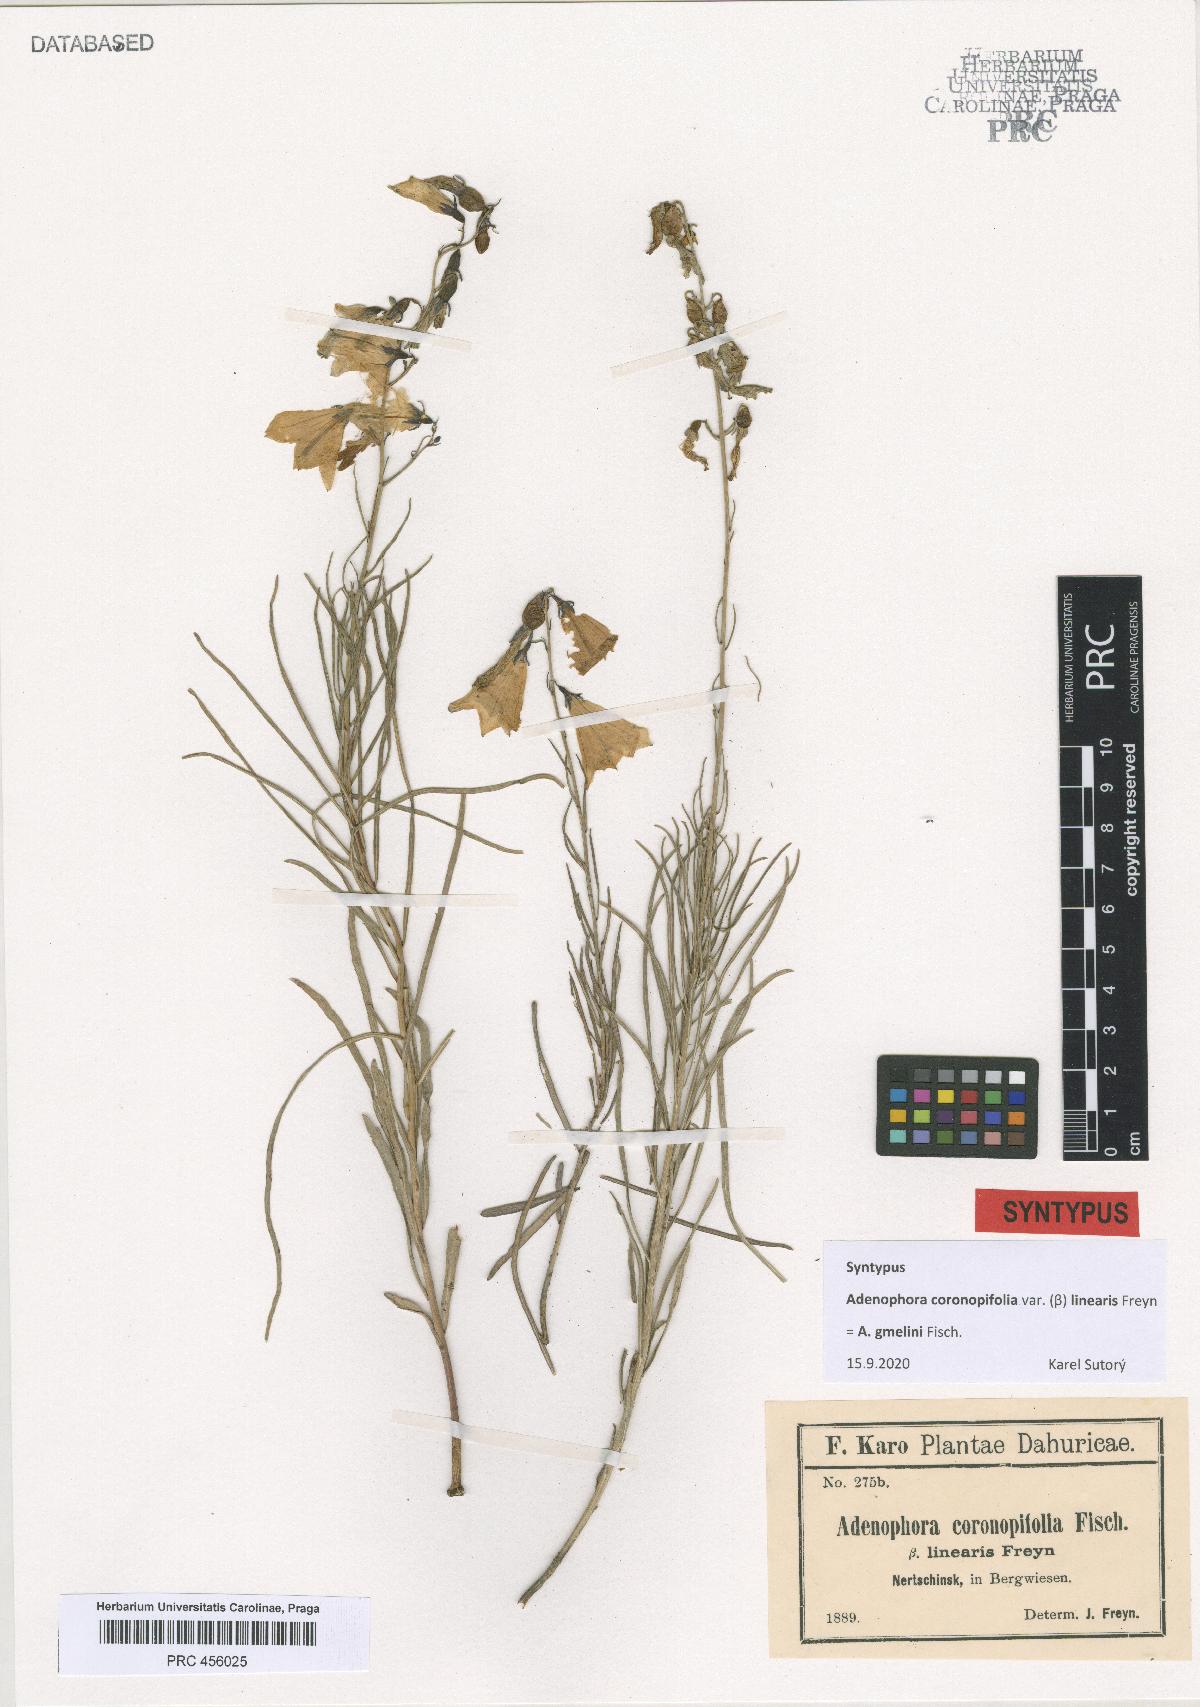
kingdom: Plantae
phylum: Tracheophyta
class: Magnoliopsida
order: Asterales
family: Campanulaceae
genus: Adenophora
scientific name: Adenophora gmelinii
